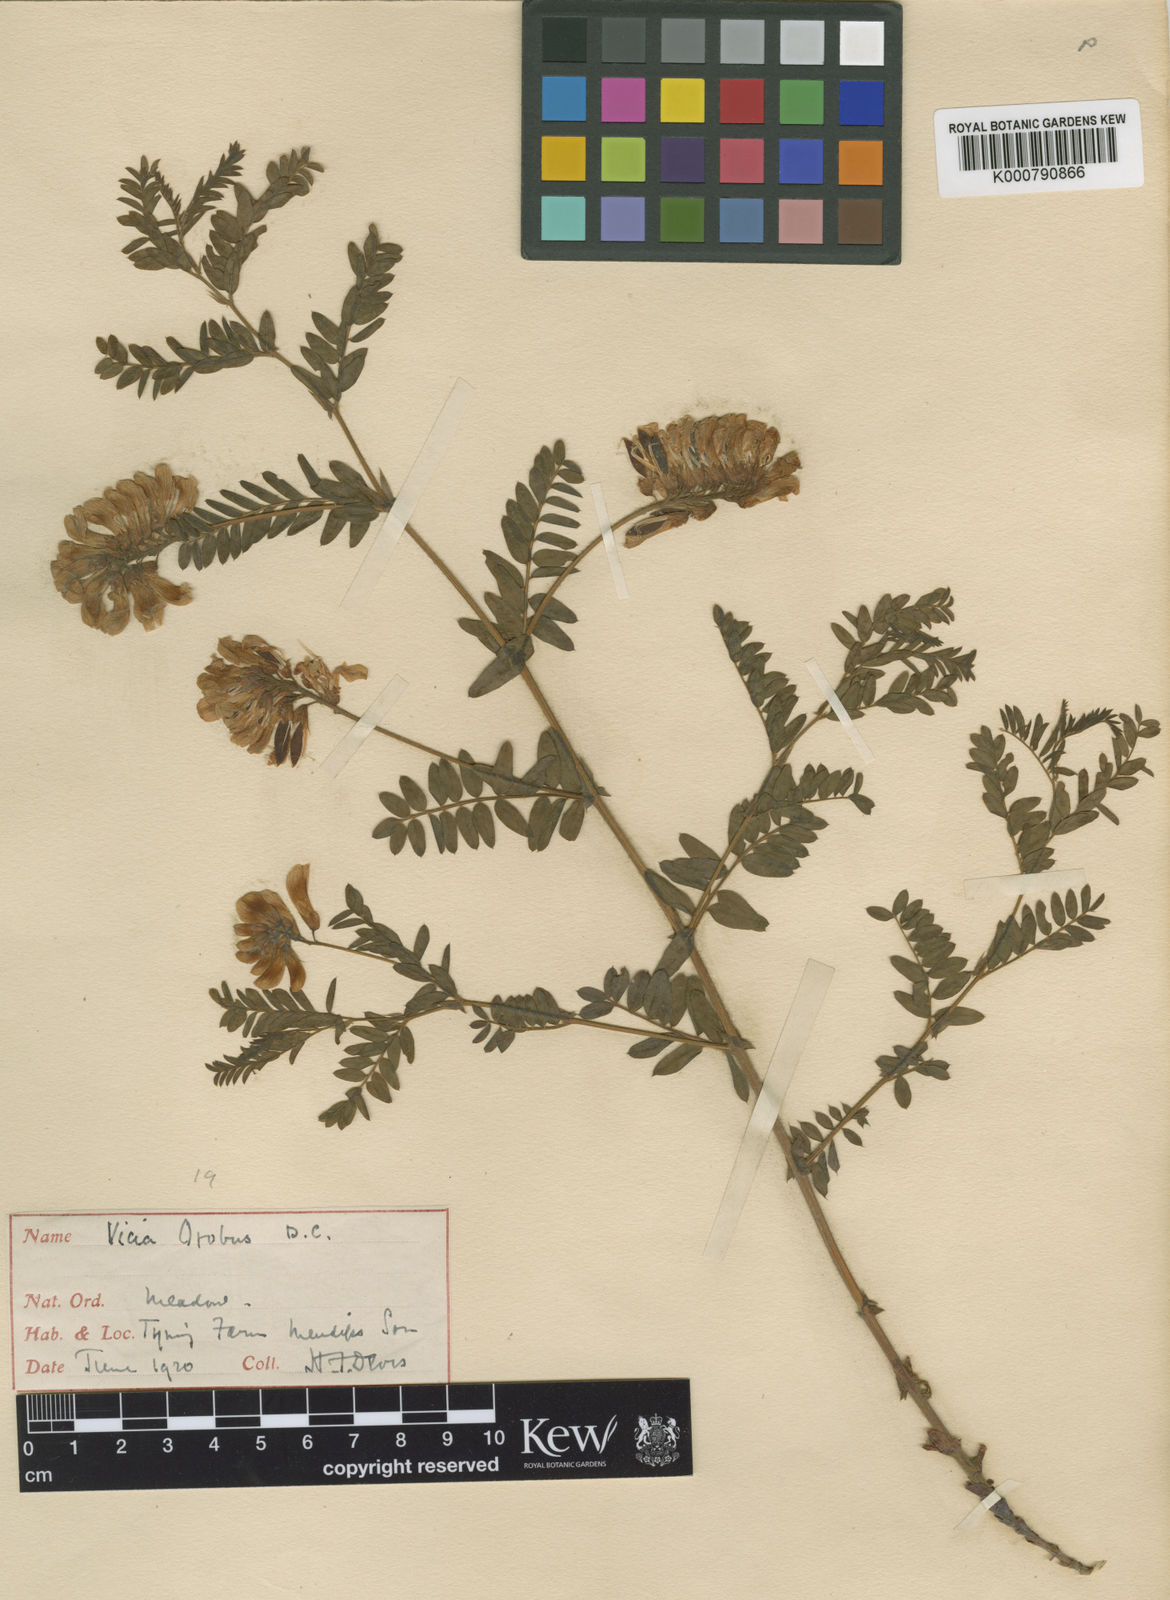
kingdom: Plantae
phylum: Tracheophyta
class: Magnoliopsida
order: Fabales
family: Fabaceae
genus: Vicia
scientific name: Vicia orobus
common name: Wood bitter-vetch
